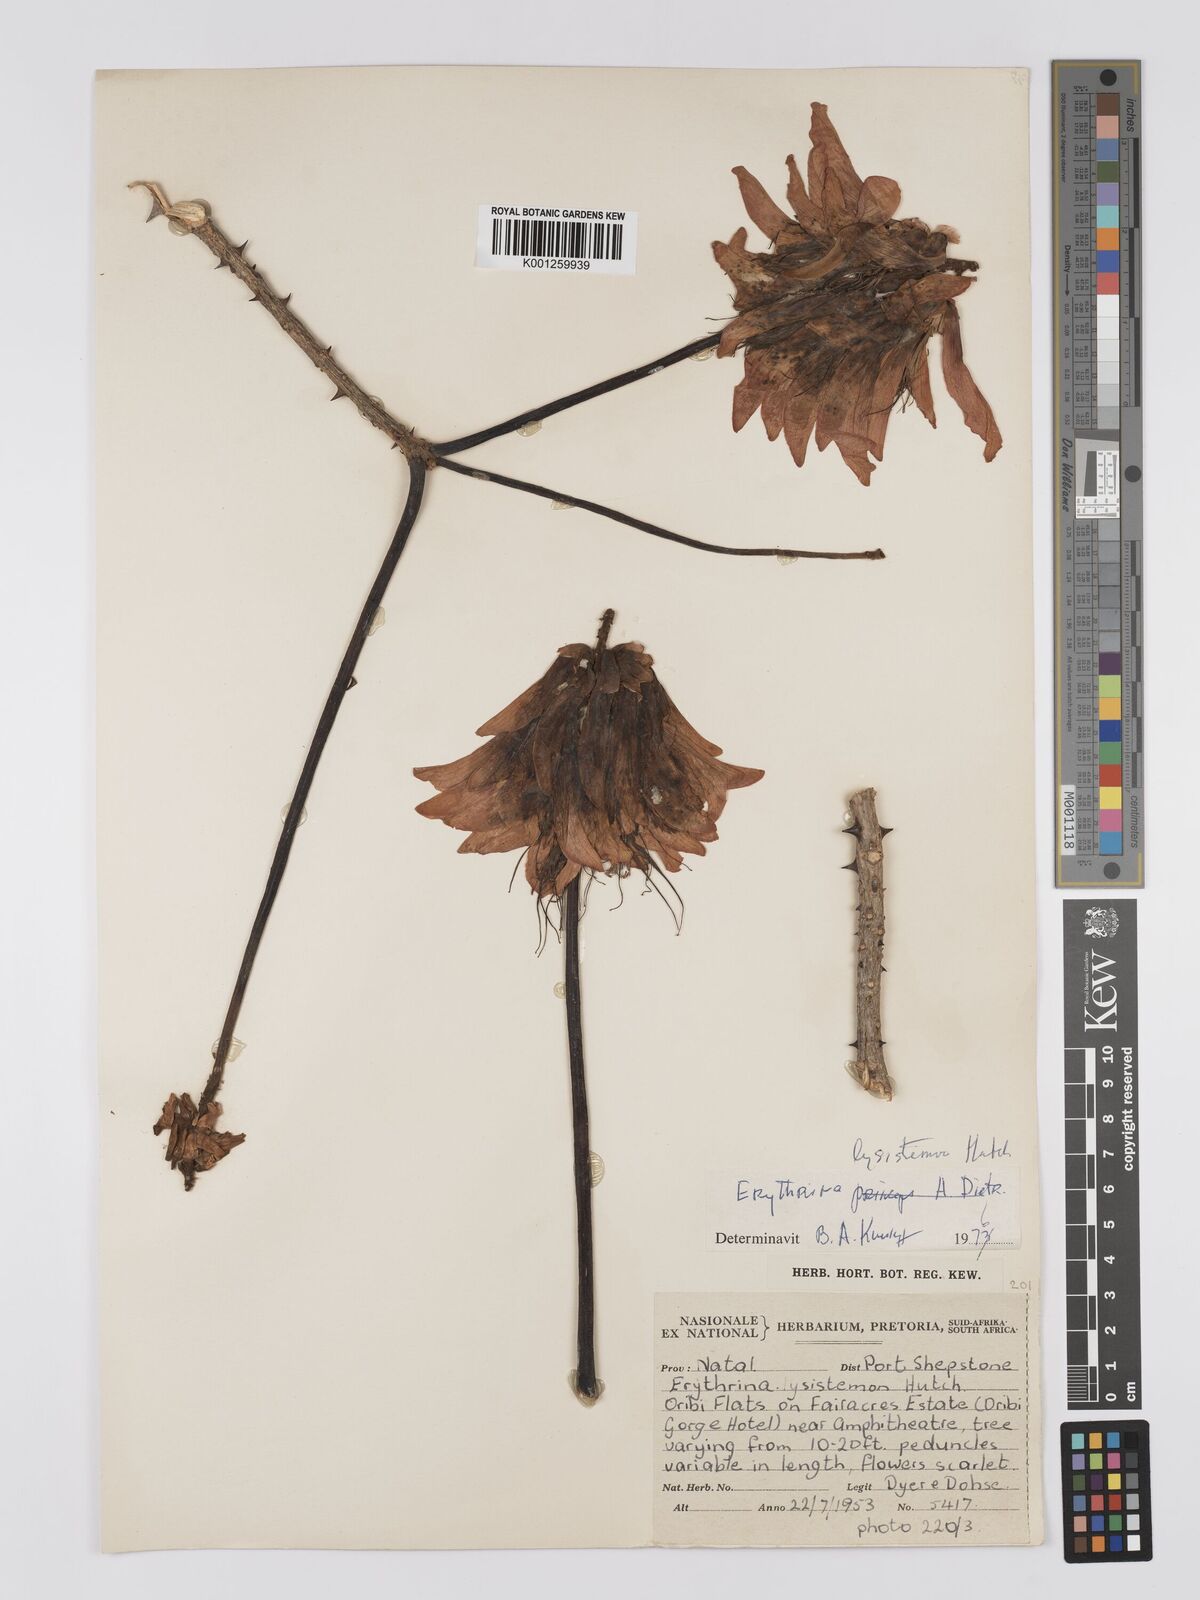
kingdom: Plantae
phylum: Tracheophyta
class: Magnoliopsida
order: Fabales
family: Fabaceae
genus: Erythrina
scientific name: Erythrina lysistemon
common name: Common coral tree
